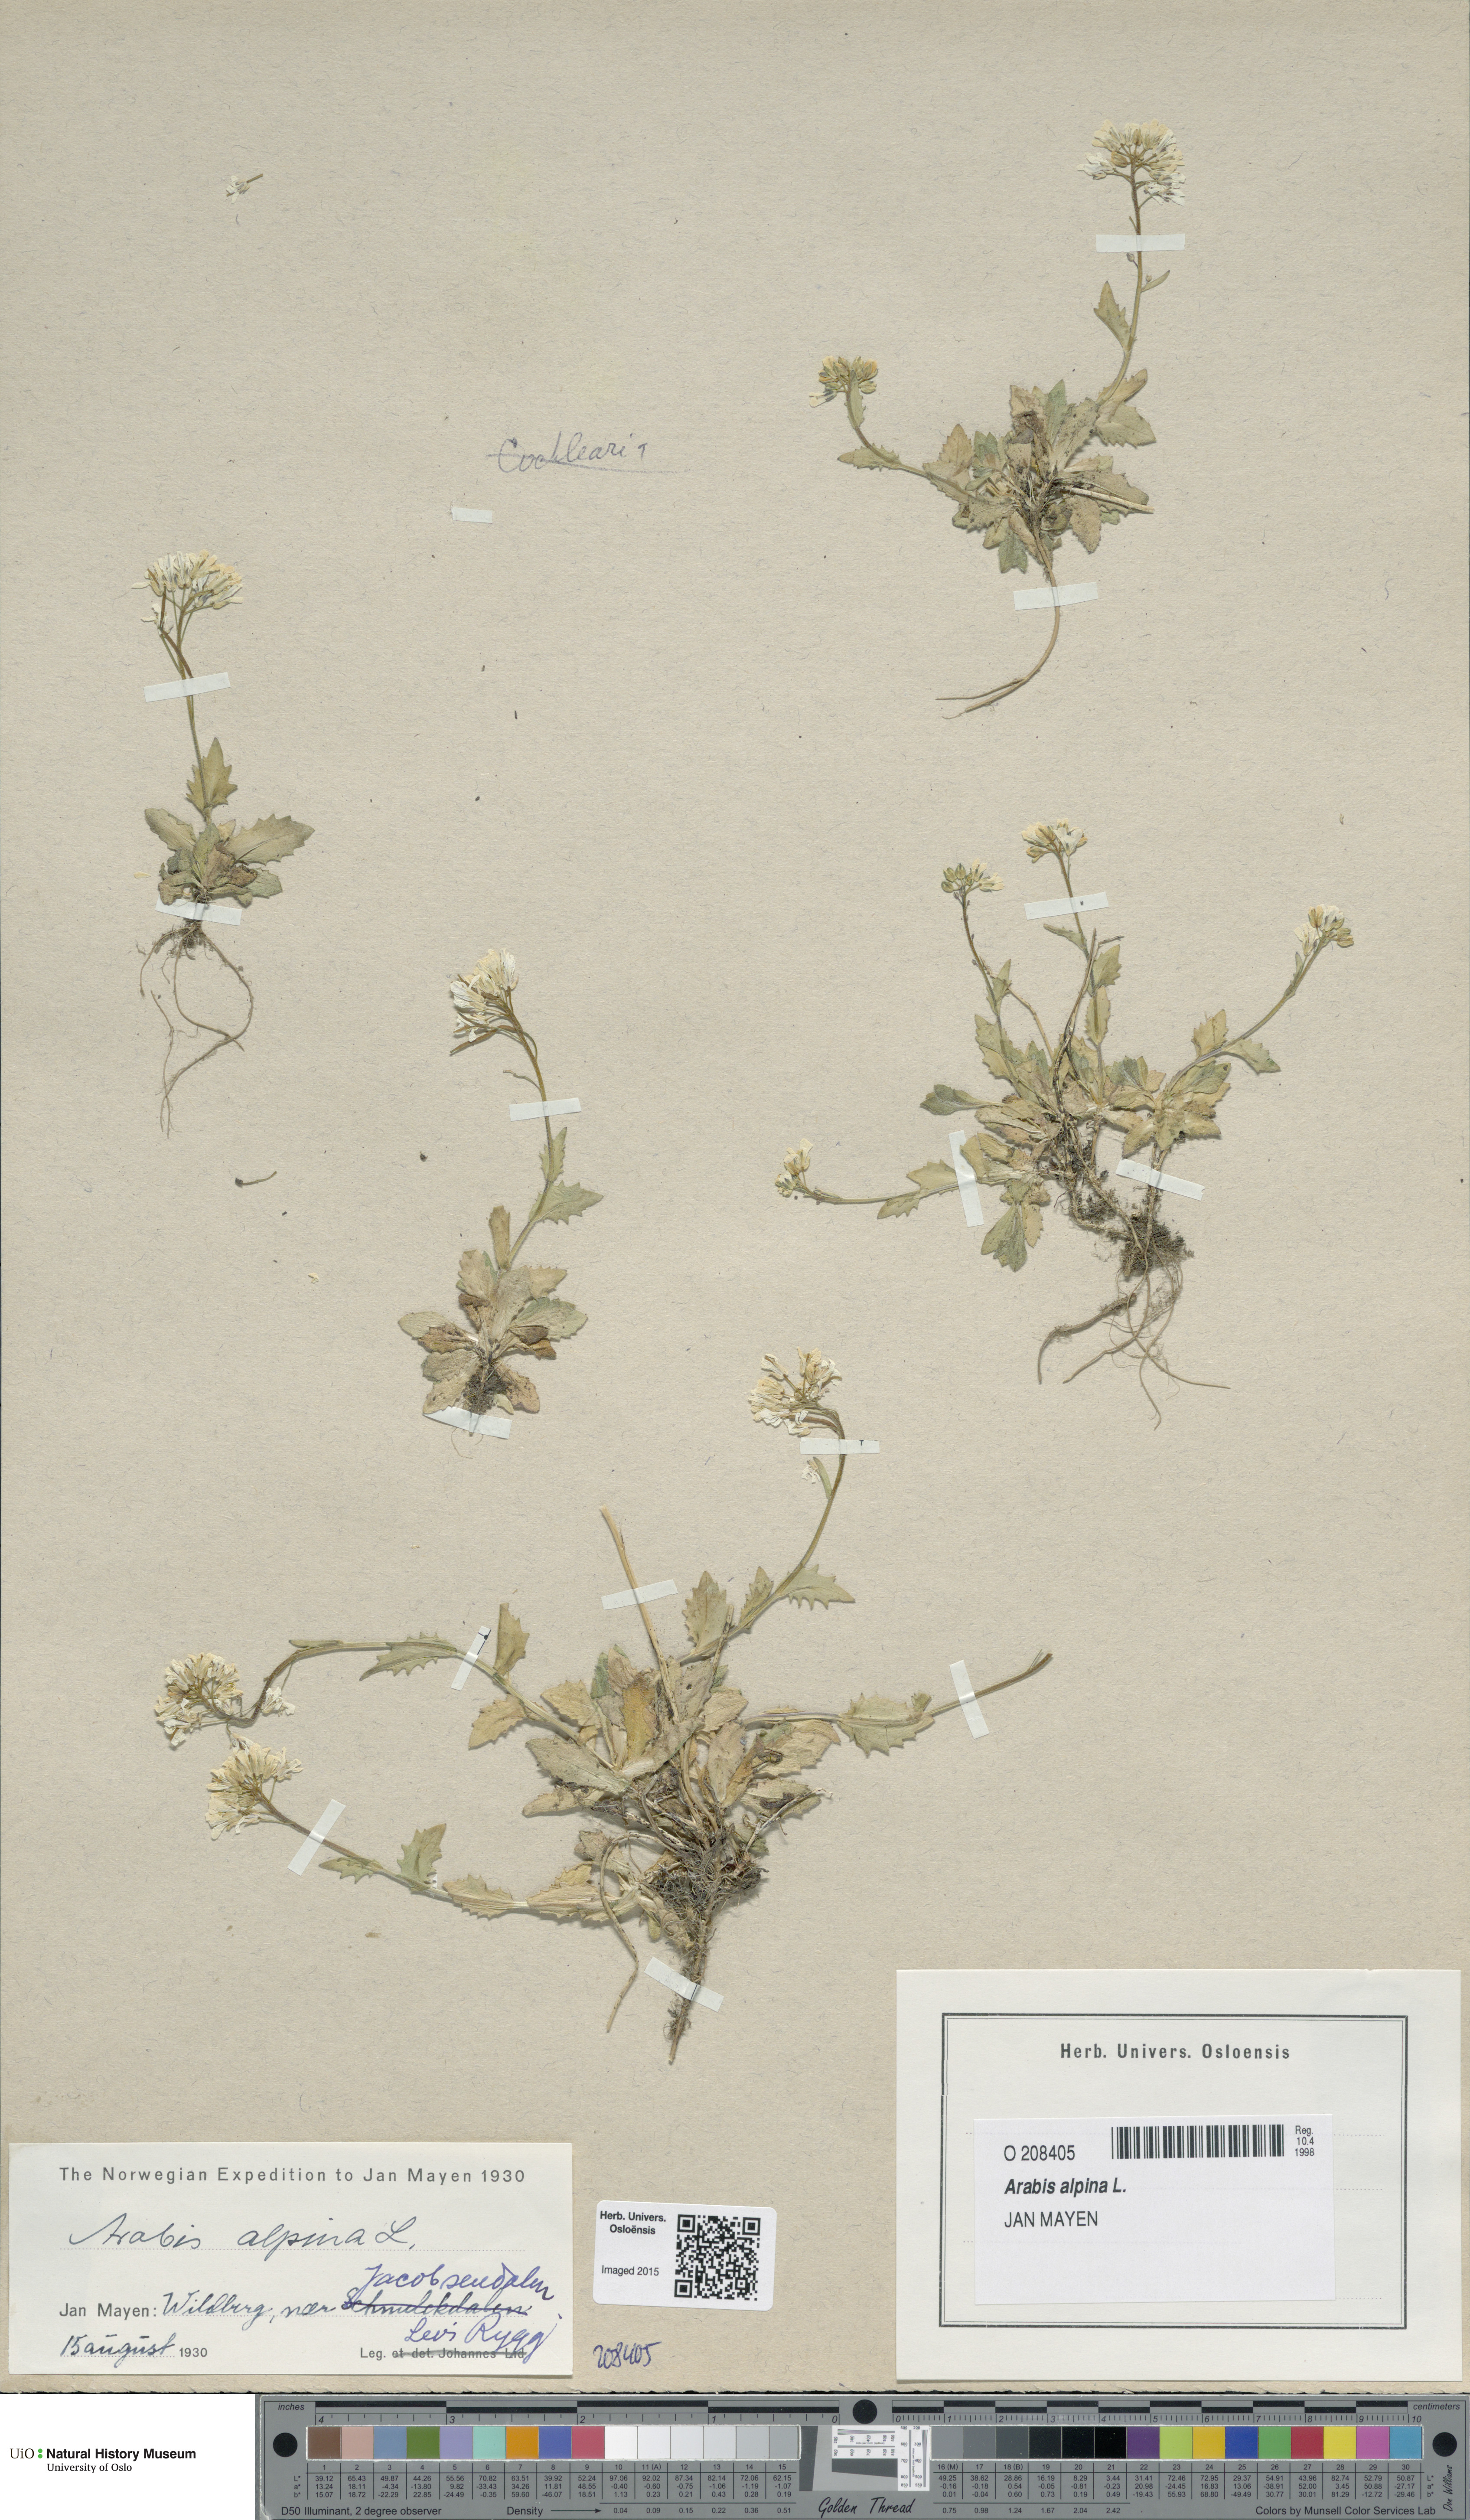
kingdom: Plantae
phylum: Tracheophyta
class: Magnoliopsida
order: Brassicales
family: Brassicaceae
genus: Arabis
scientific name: Arabis alpina
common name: Alpine rock-cress
